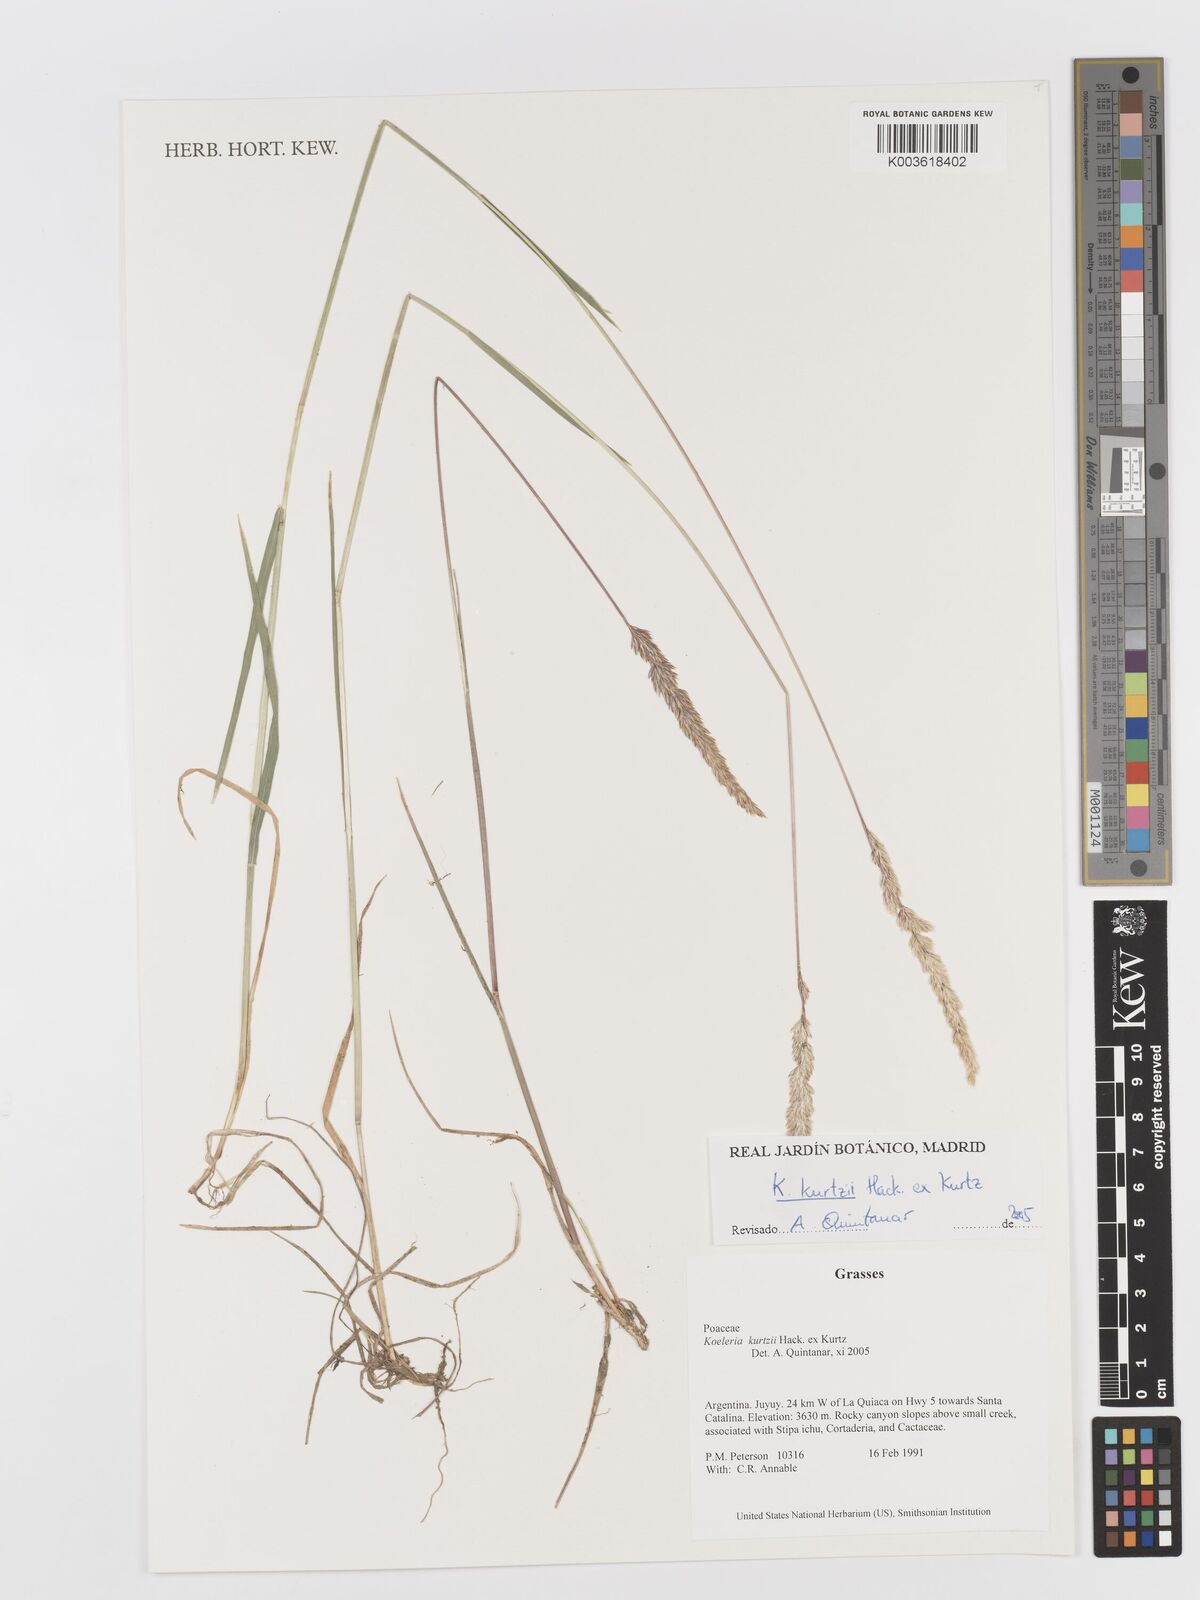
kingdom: Plantae
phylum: Tracheophyta
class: Liliopsida
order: Poales
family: Poaceae
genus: Koeleria
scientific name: Koeleria kurtzii
